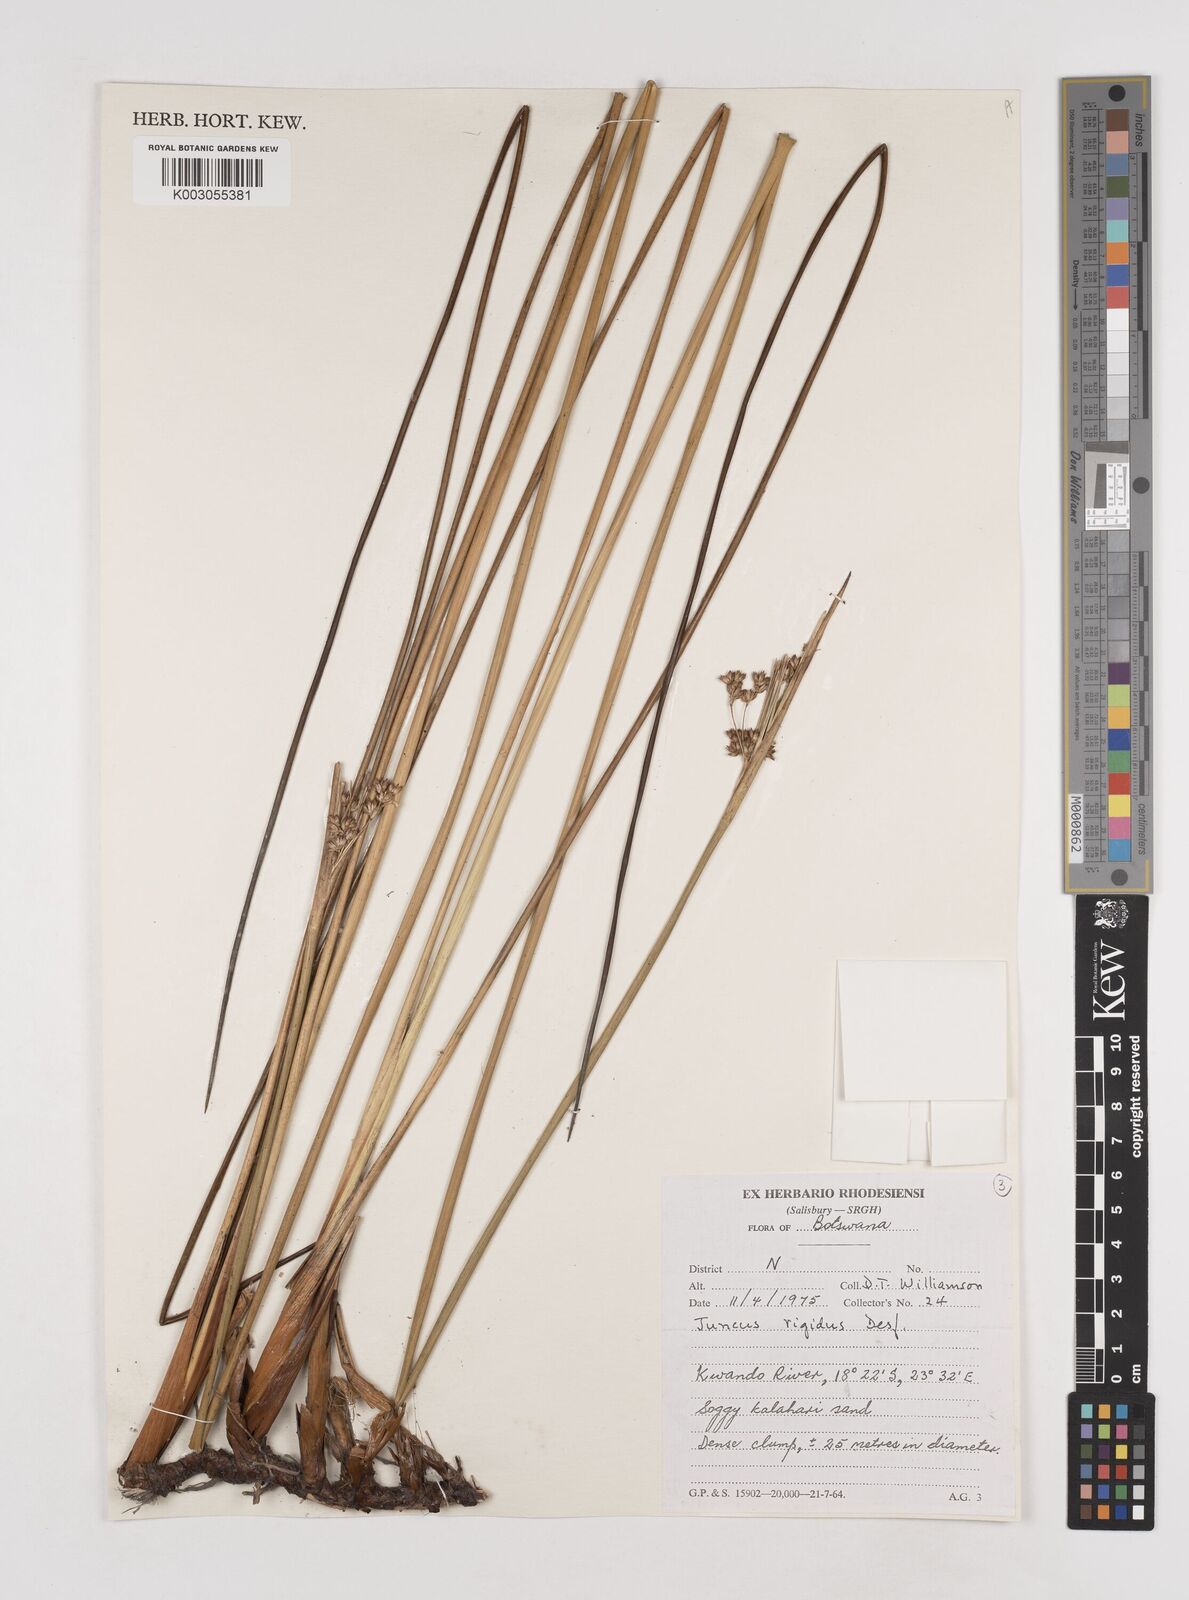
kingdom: Plantae
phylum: Tracheophyta
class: Liliopsida
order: Poales
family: Juncaceae
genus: Juncus
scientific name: Juncus rigidus
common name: Hard sea rush
